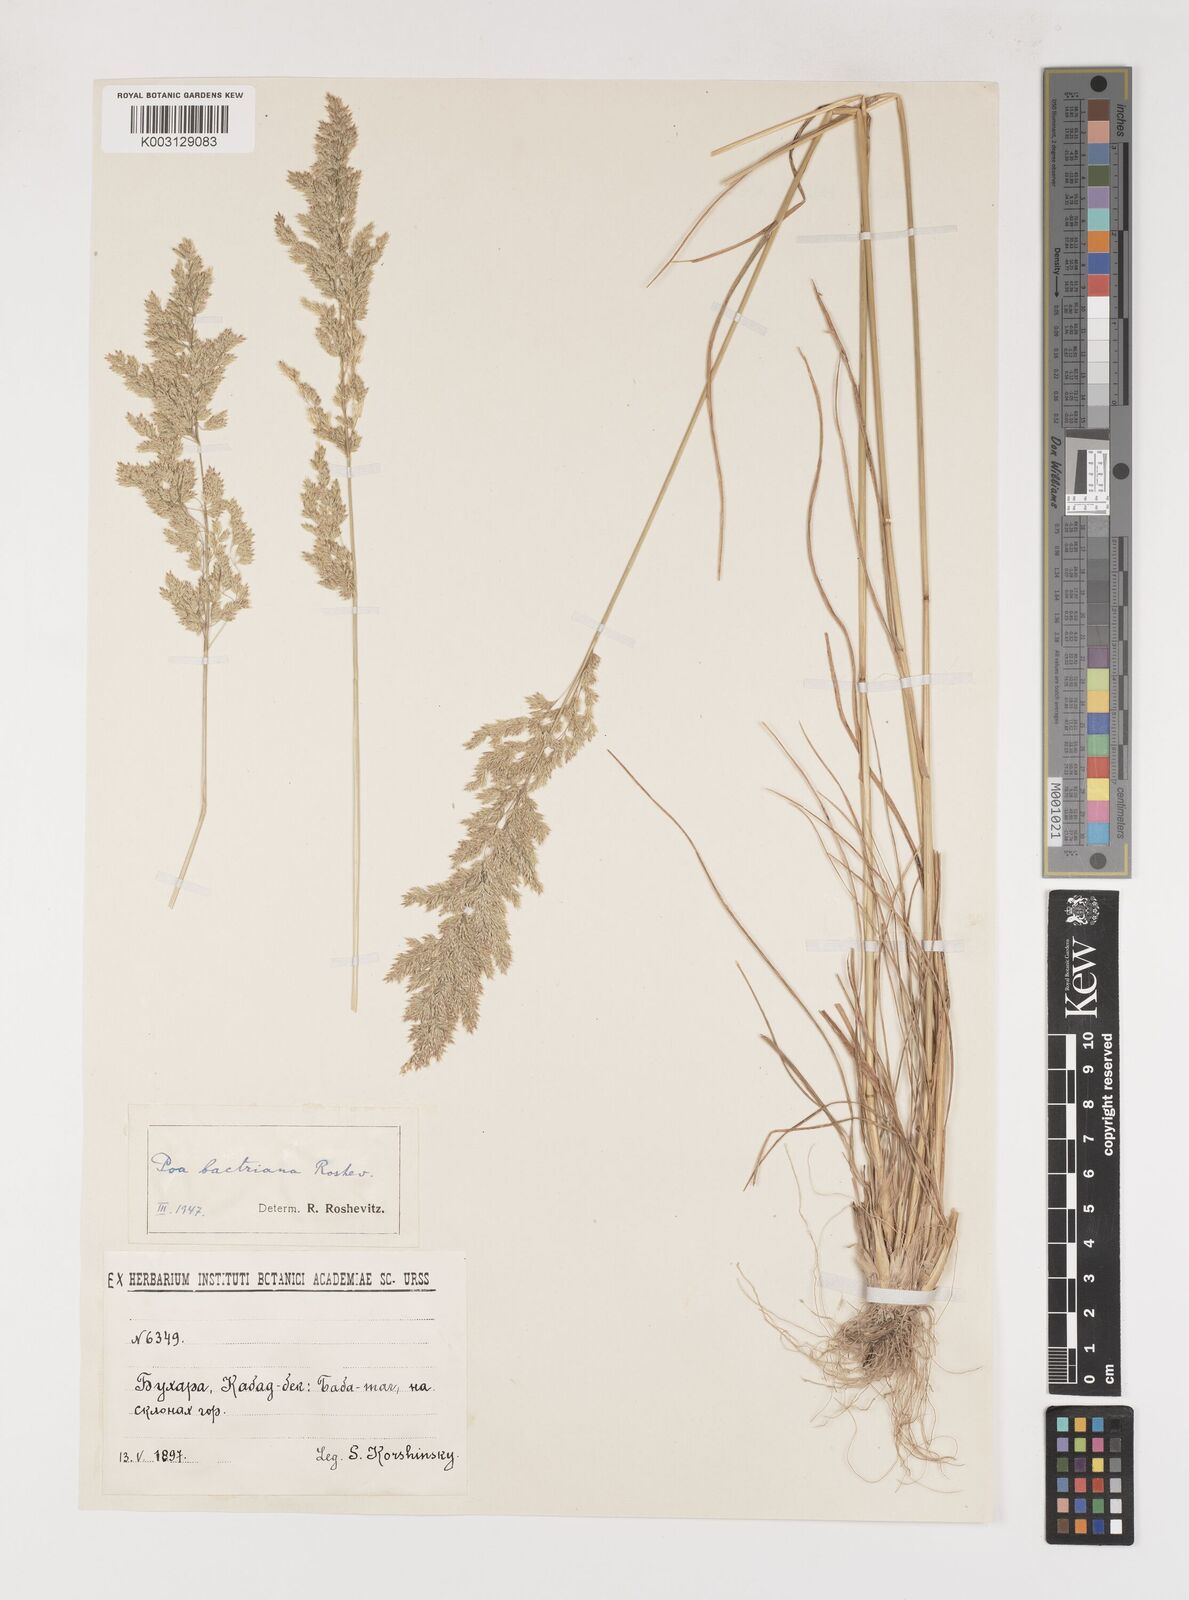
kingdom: Plantae
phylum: Tracheophyta
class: Liliopsida
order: Poales
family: Poaceae
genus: Poa
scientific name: Poa
